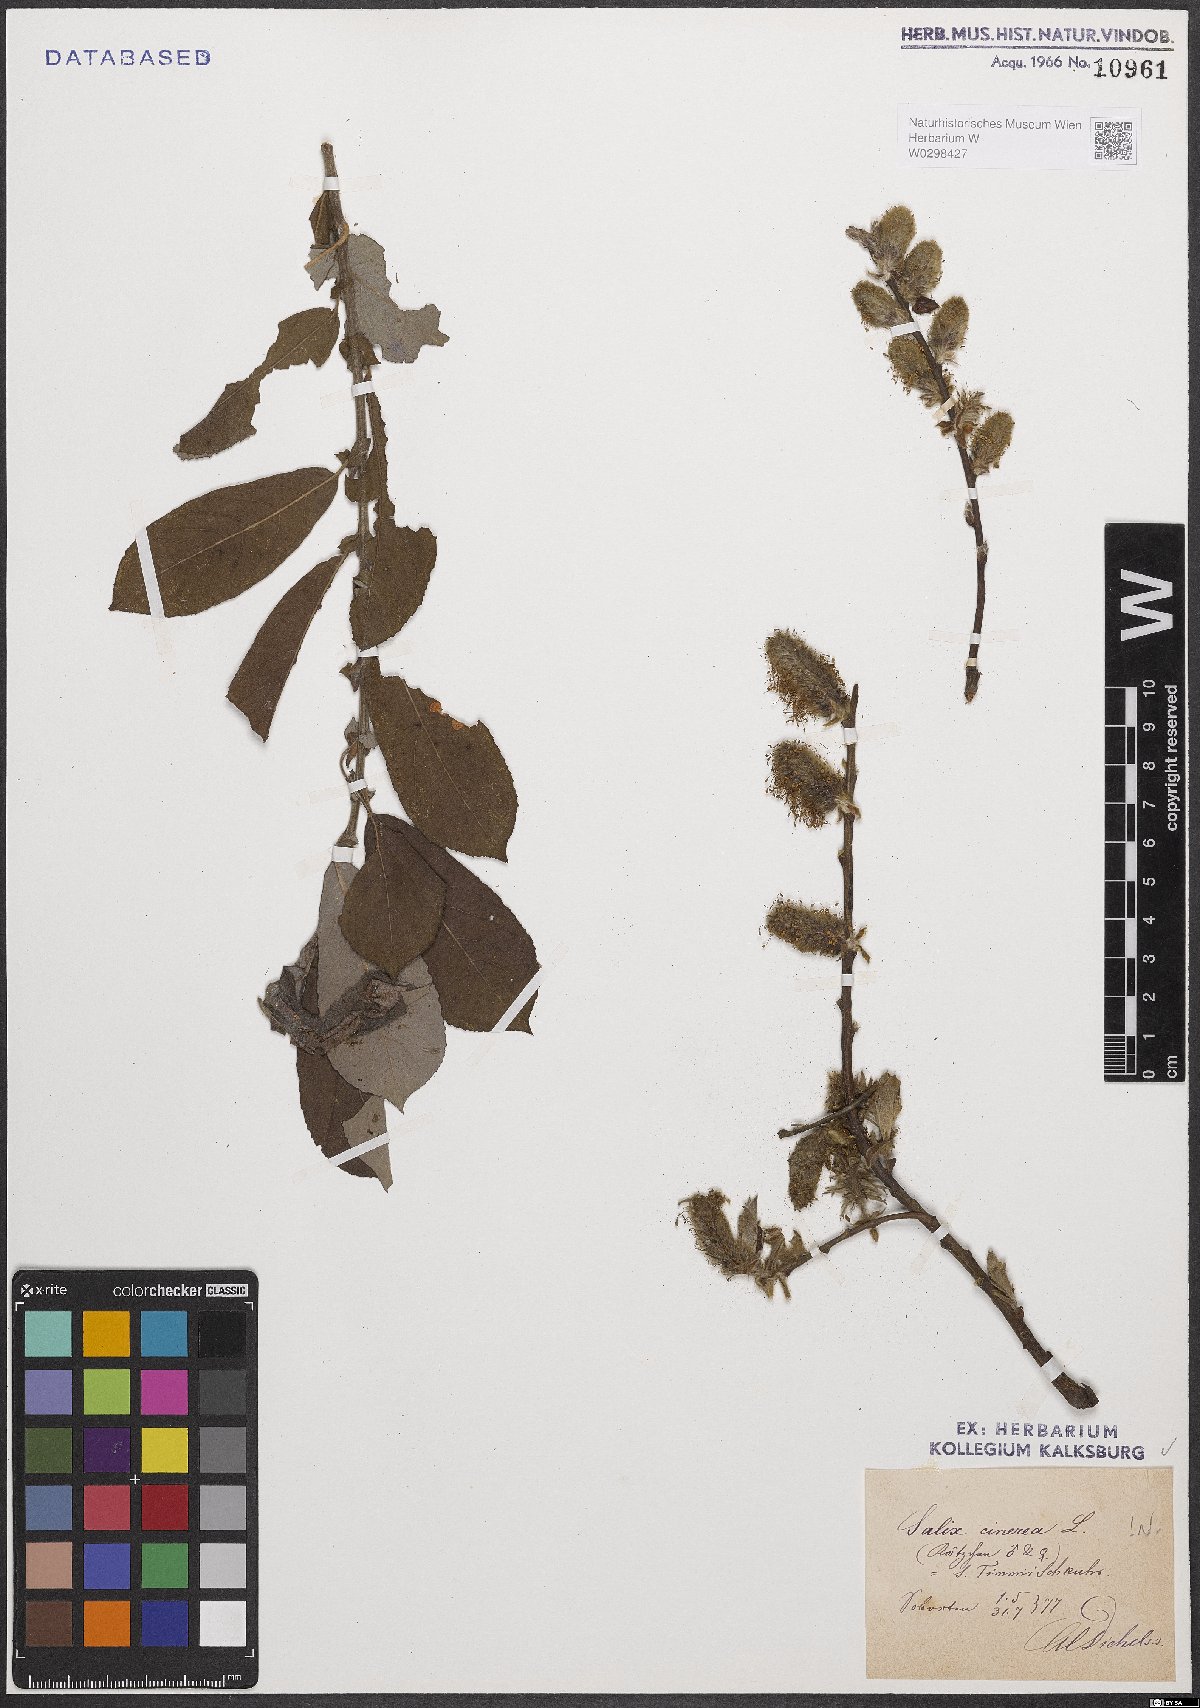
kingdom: Plantae
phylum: Tracheophyta
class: Magnoliopsida
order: Malpighiales
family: Salicaceae
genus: Salix
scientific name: Salix cinerea
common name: Common sallow
